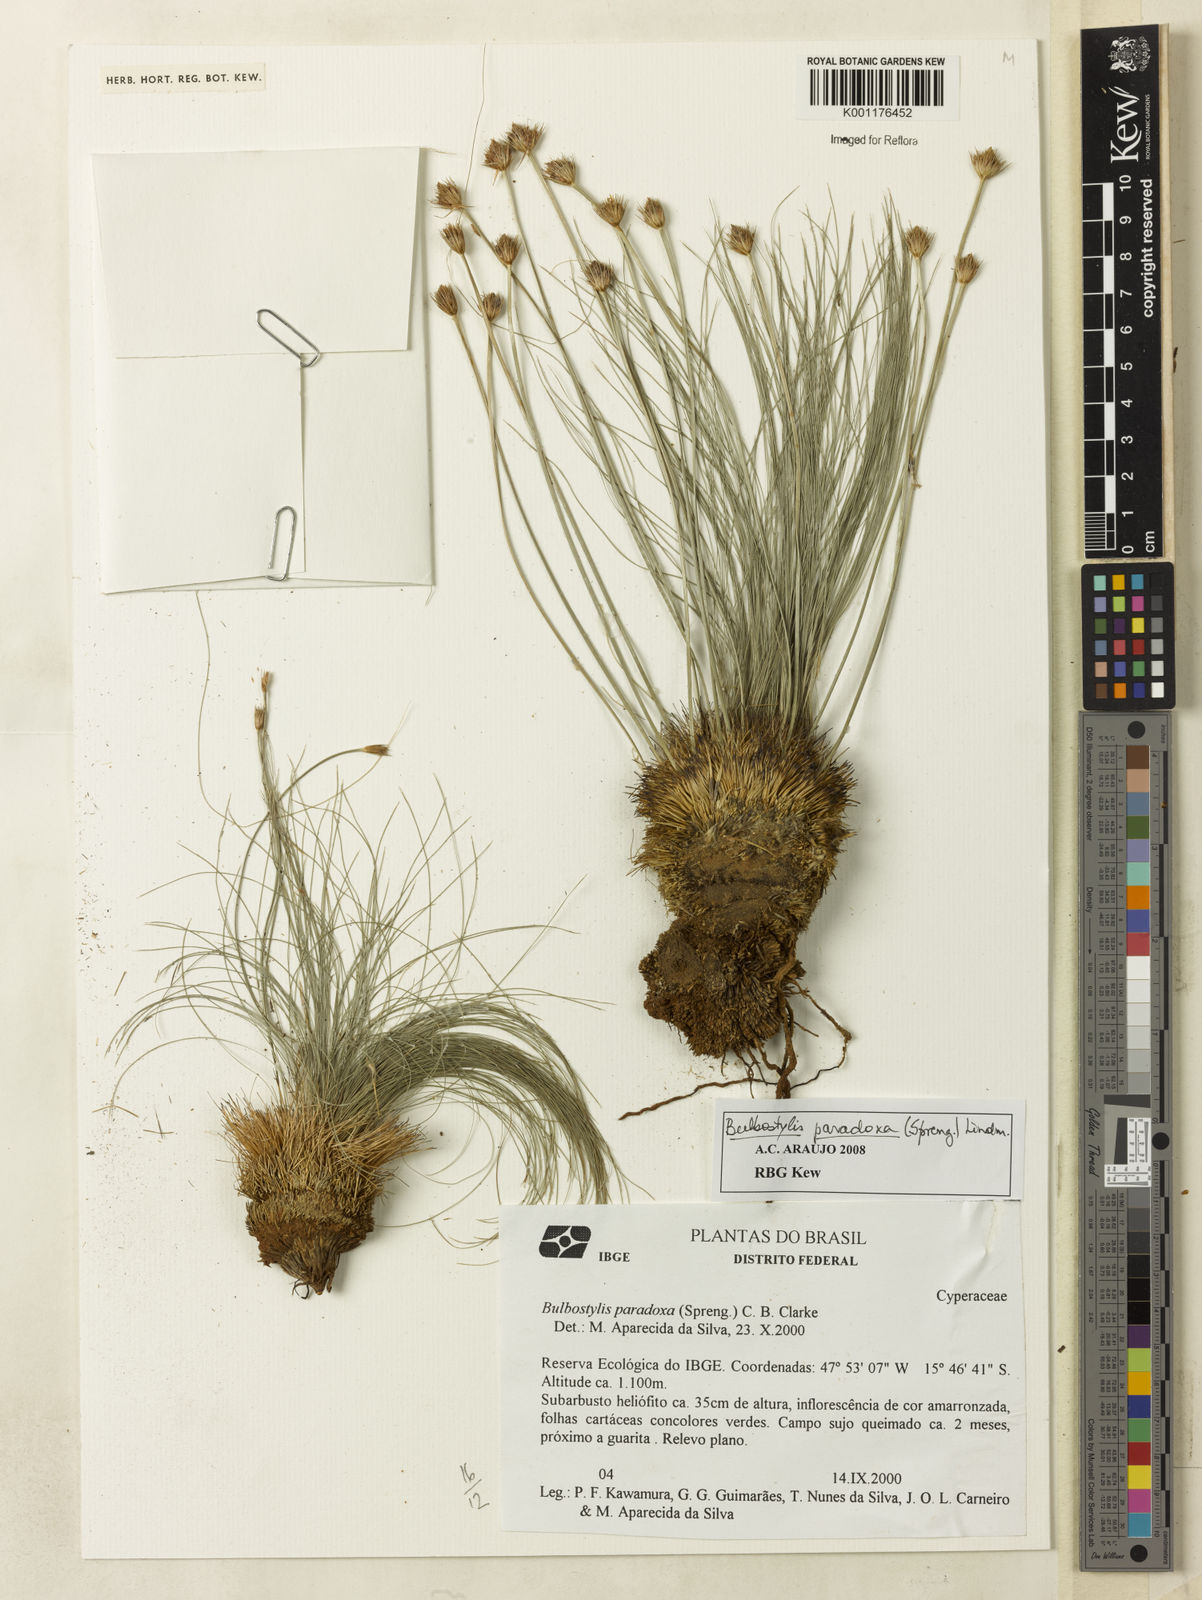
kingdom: Plantae
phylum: Tracheophyta
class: Liliopsida
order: Poales
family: Cyperaceae
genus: Bulbostylis
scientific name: Bulbostylis paradoxa
